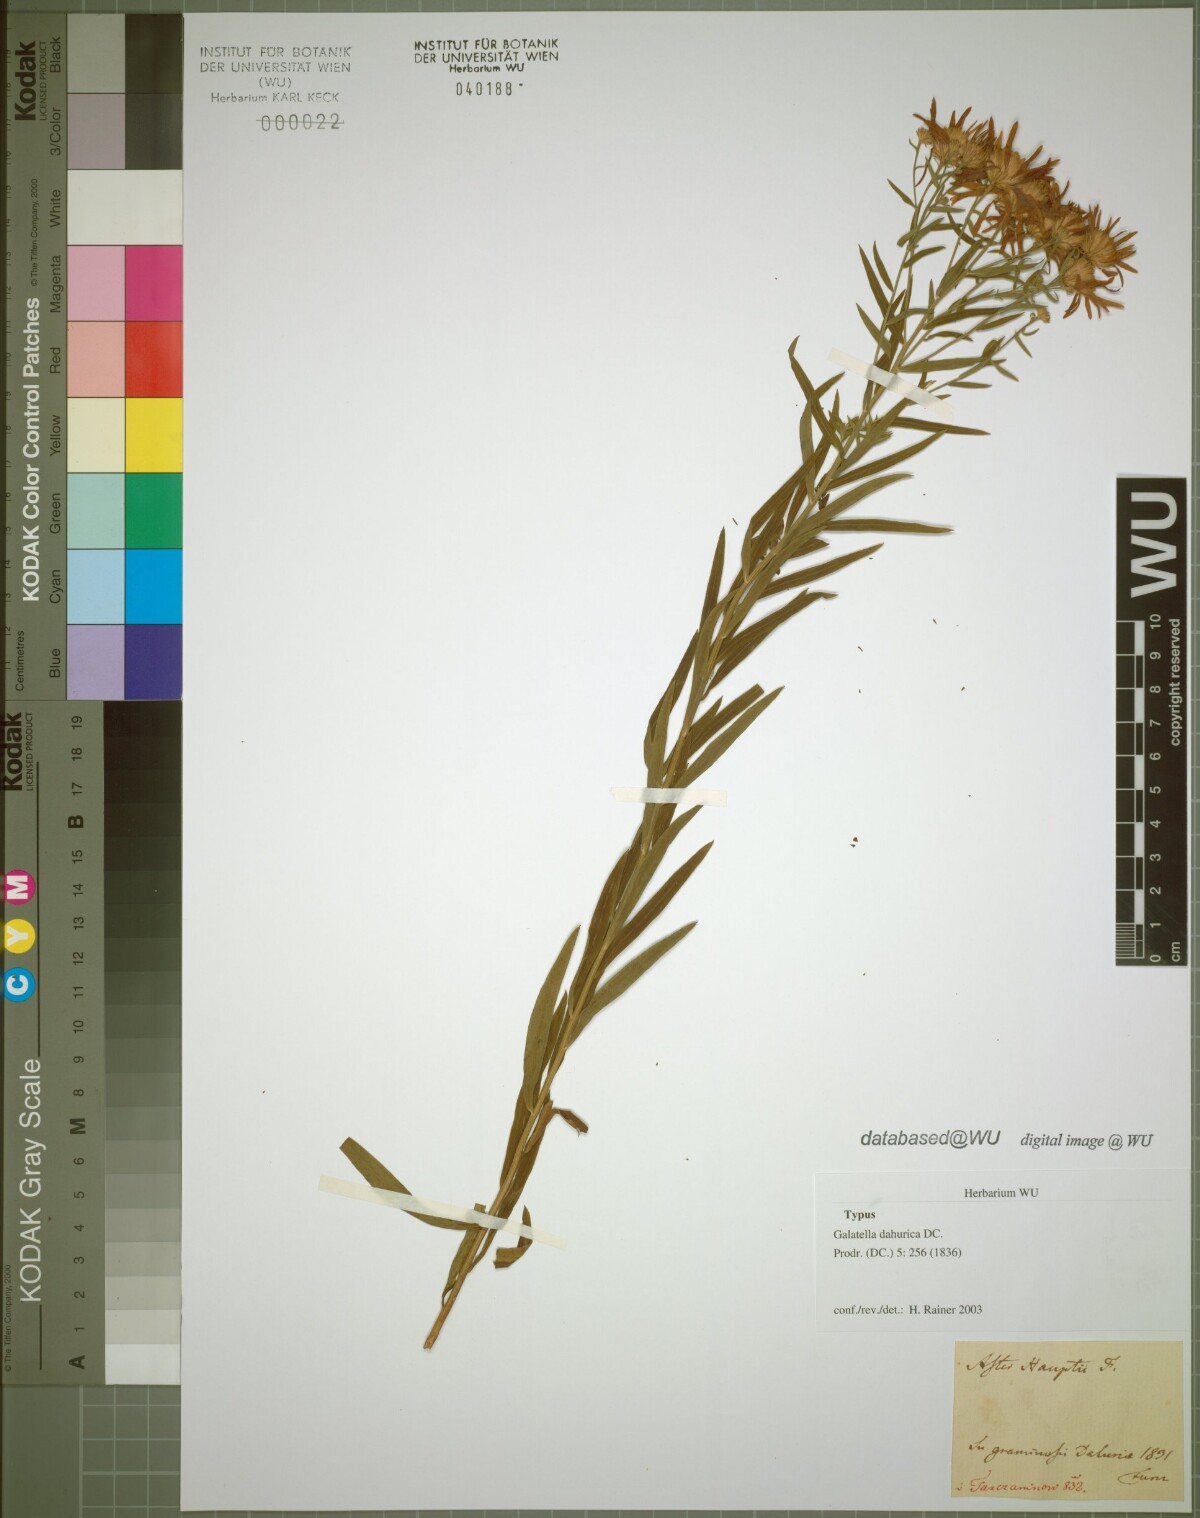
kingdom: Plantae
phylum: Tracheophyta
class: Magnoliopsida
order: Asterales
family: Asteraceae
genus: Galatella
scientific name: Galatella dahurica
